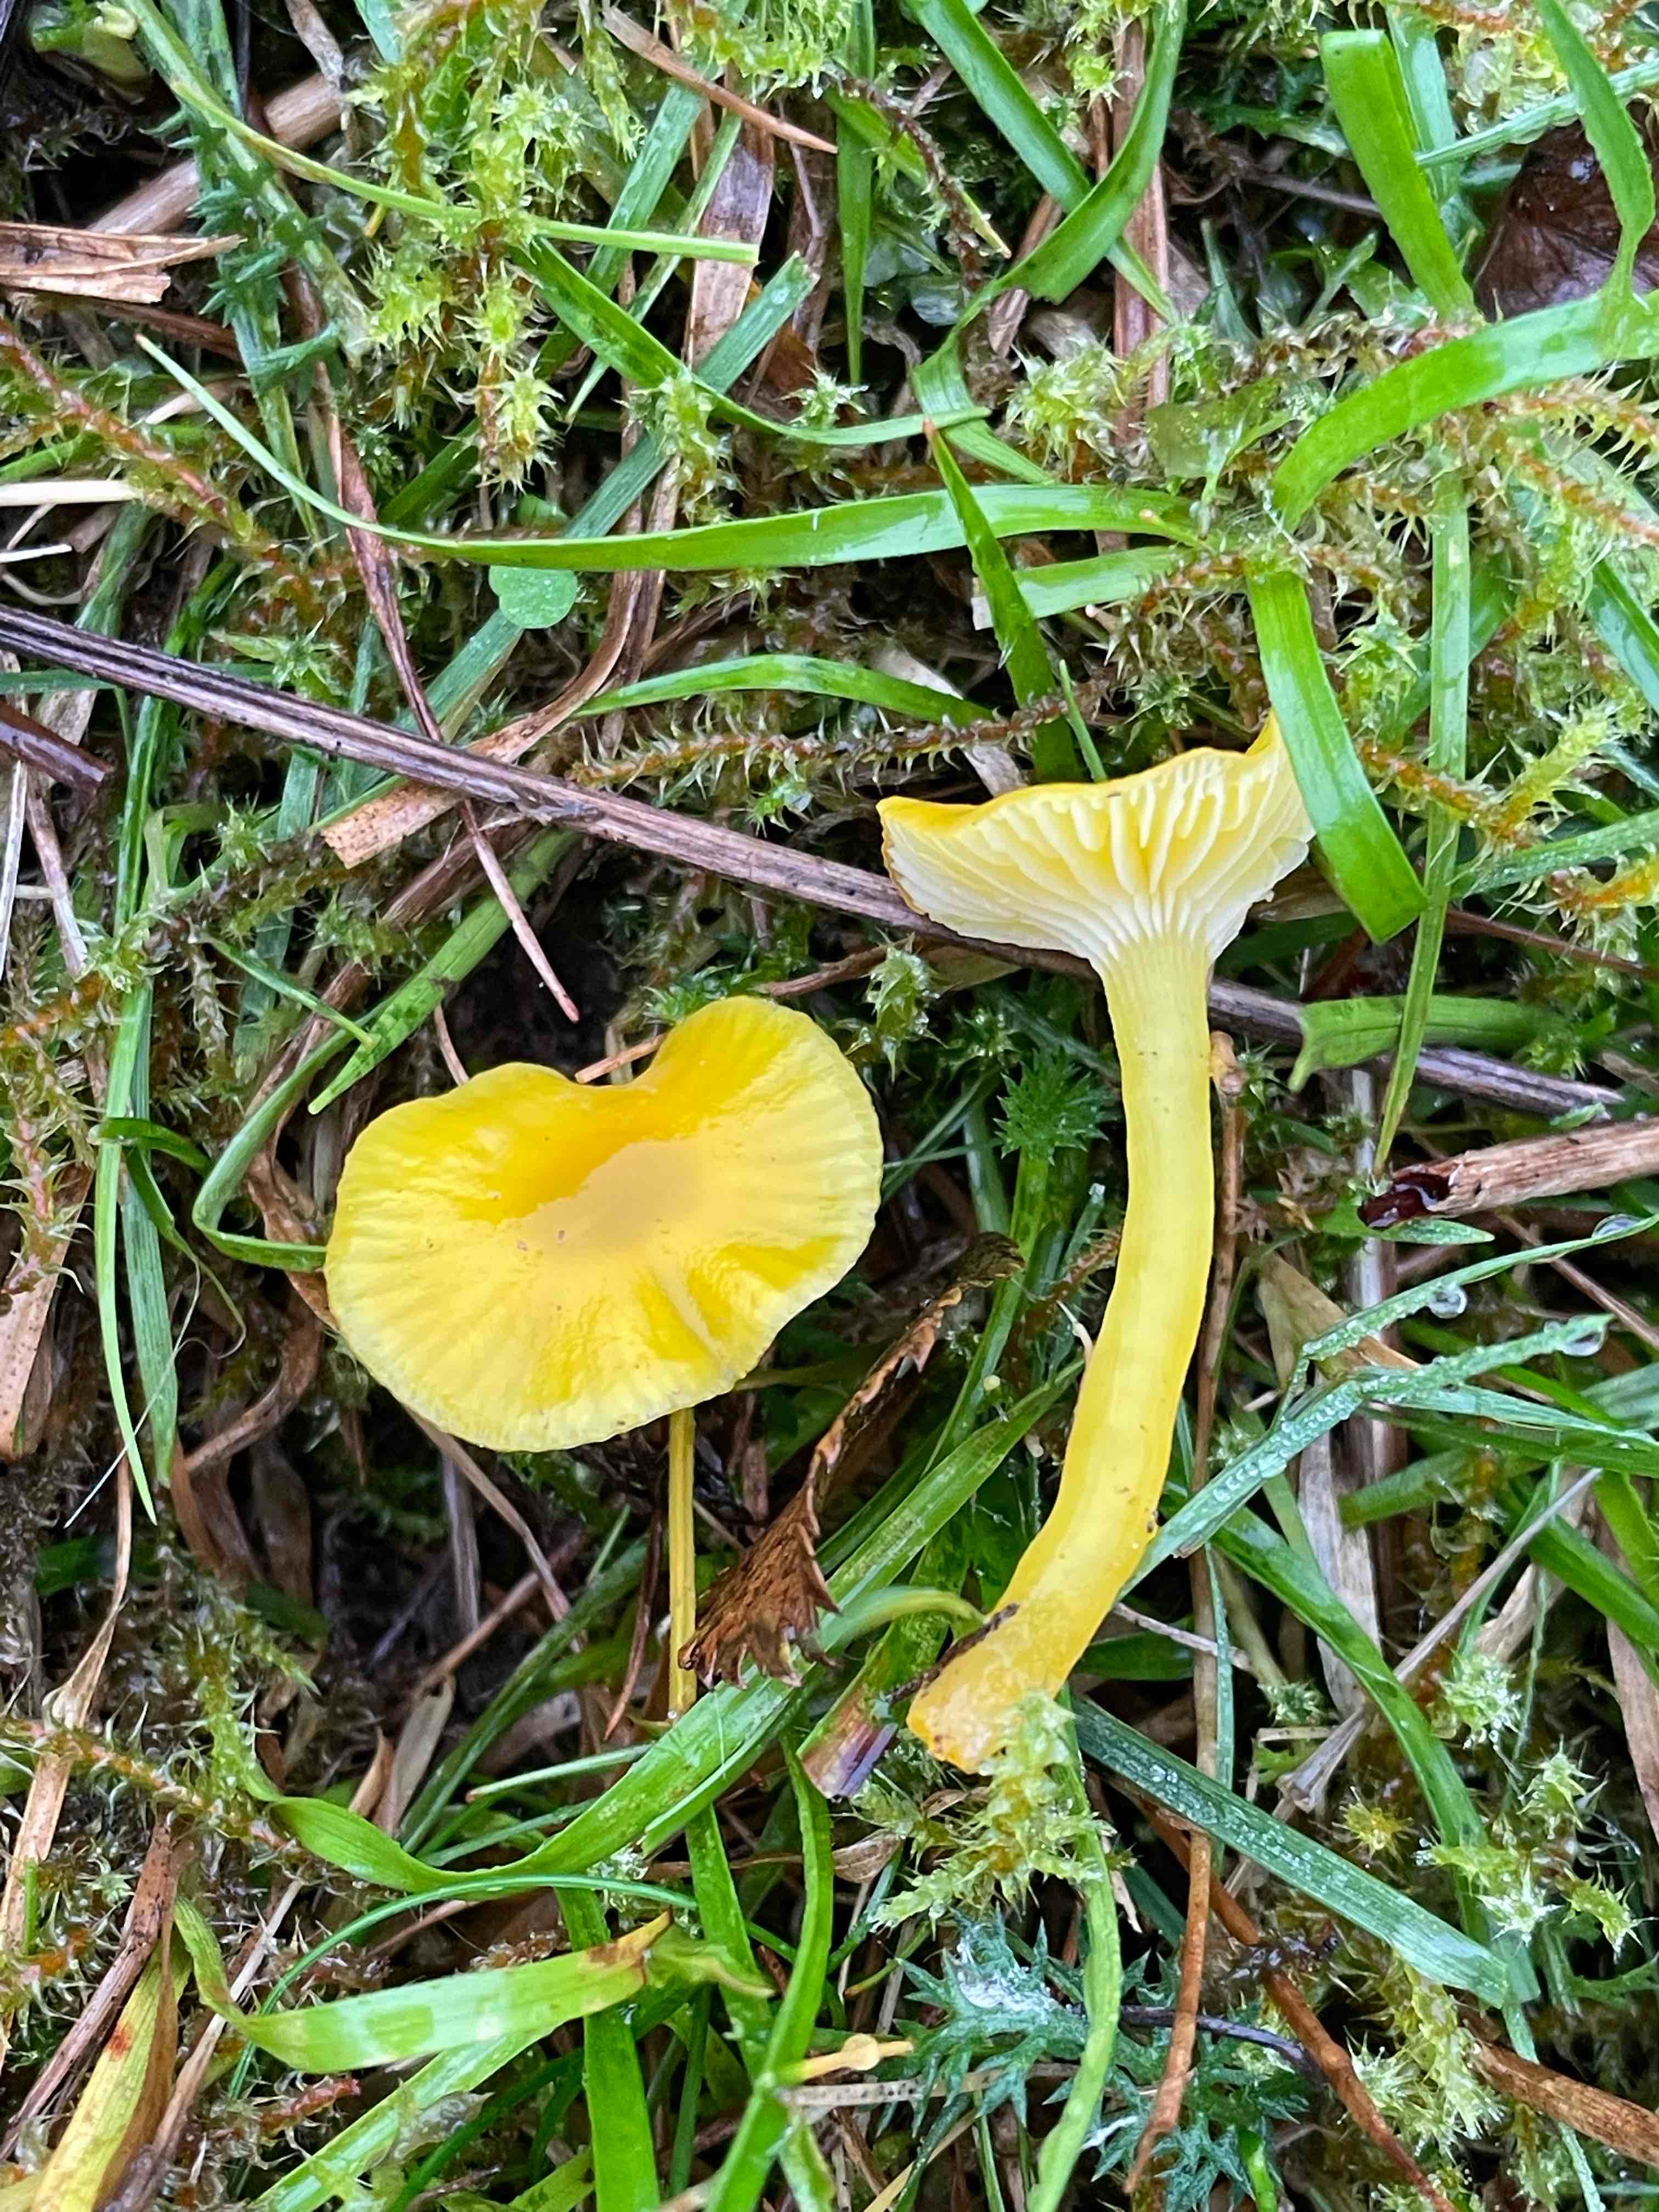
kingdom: Fungi
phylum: Basidiomycota
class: Agaricomycetes
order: Agaricales
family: Hygrophoraceae
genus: Hygrocybe
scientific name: Hygrocybe ceracea
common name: voksgul vokshat
